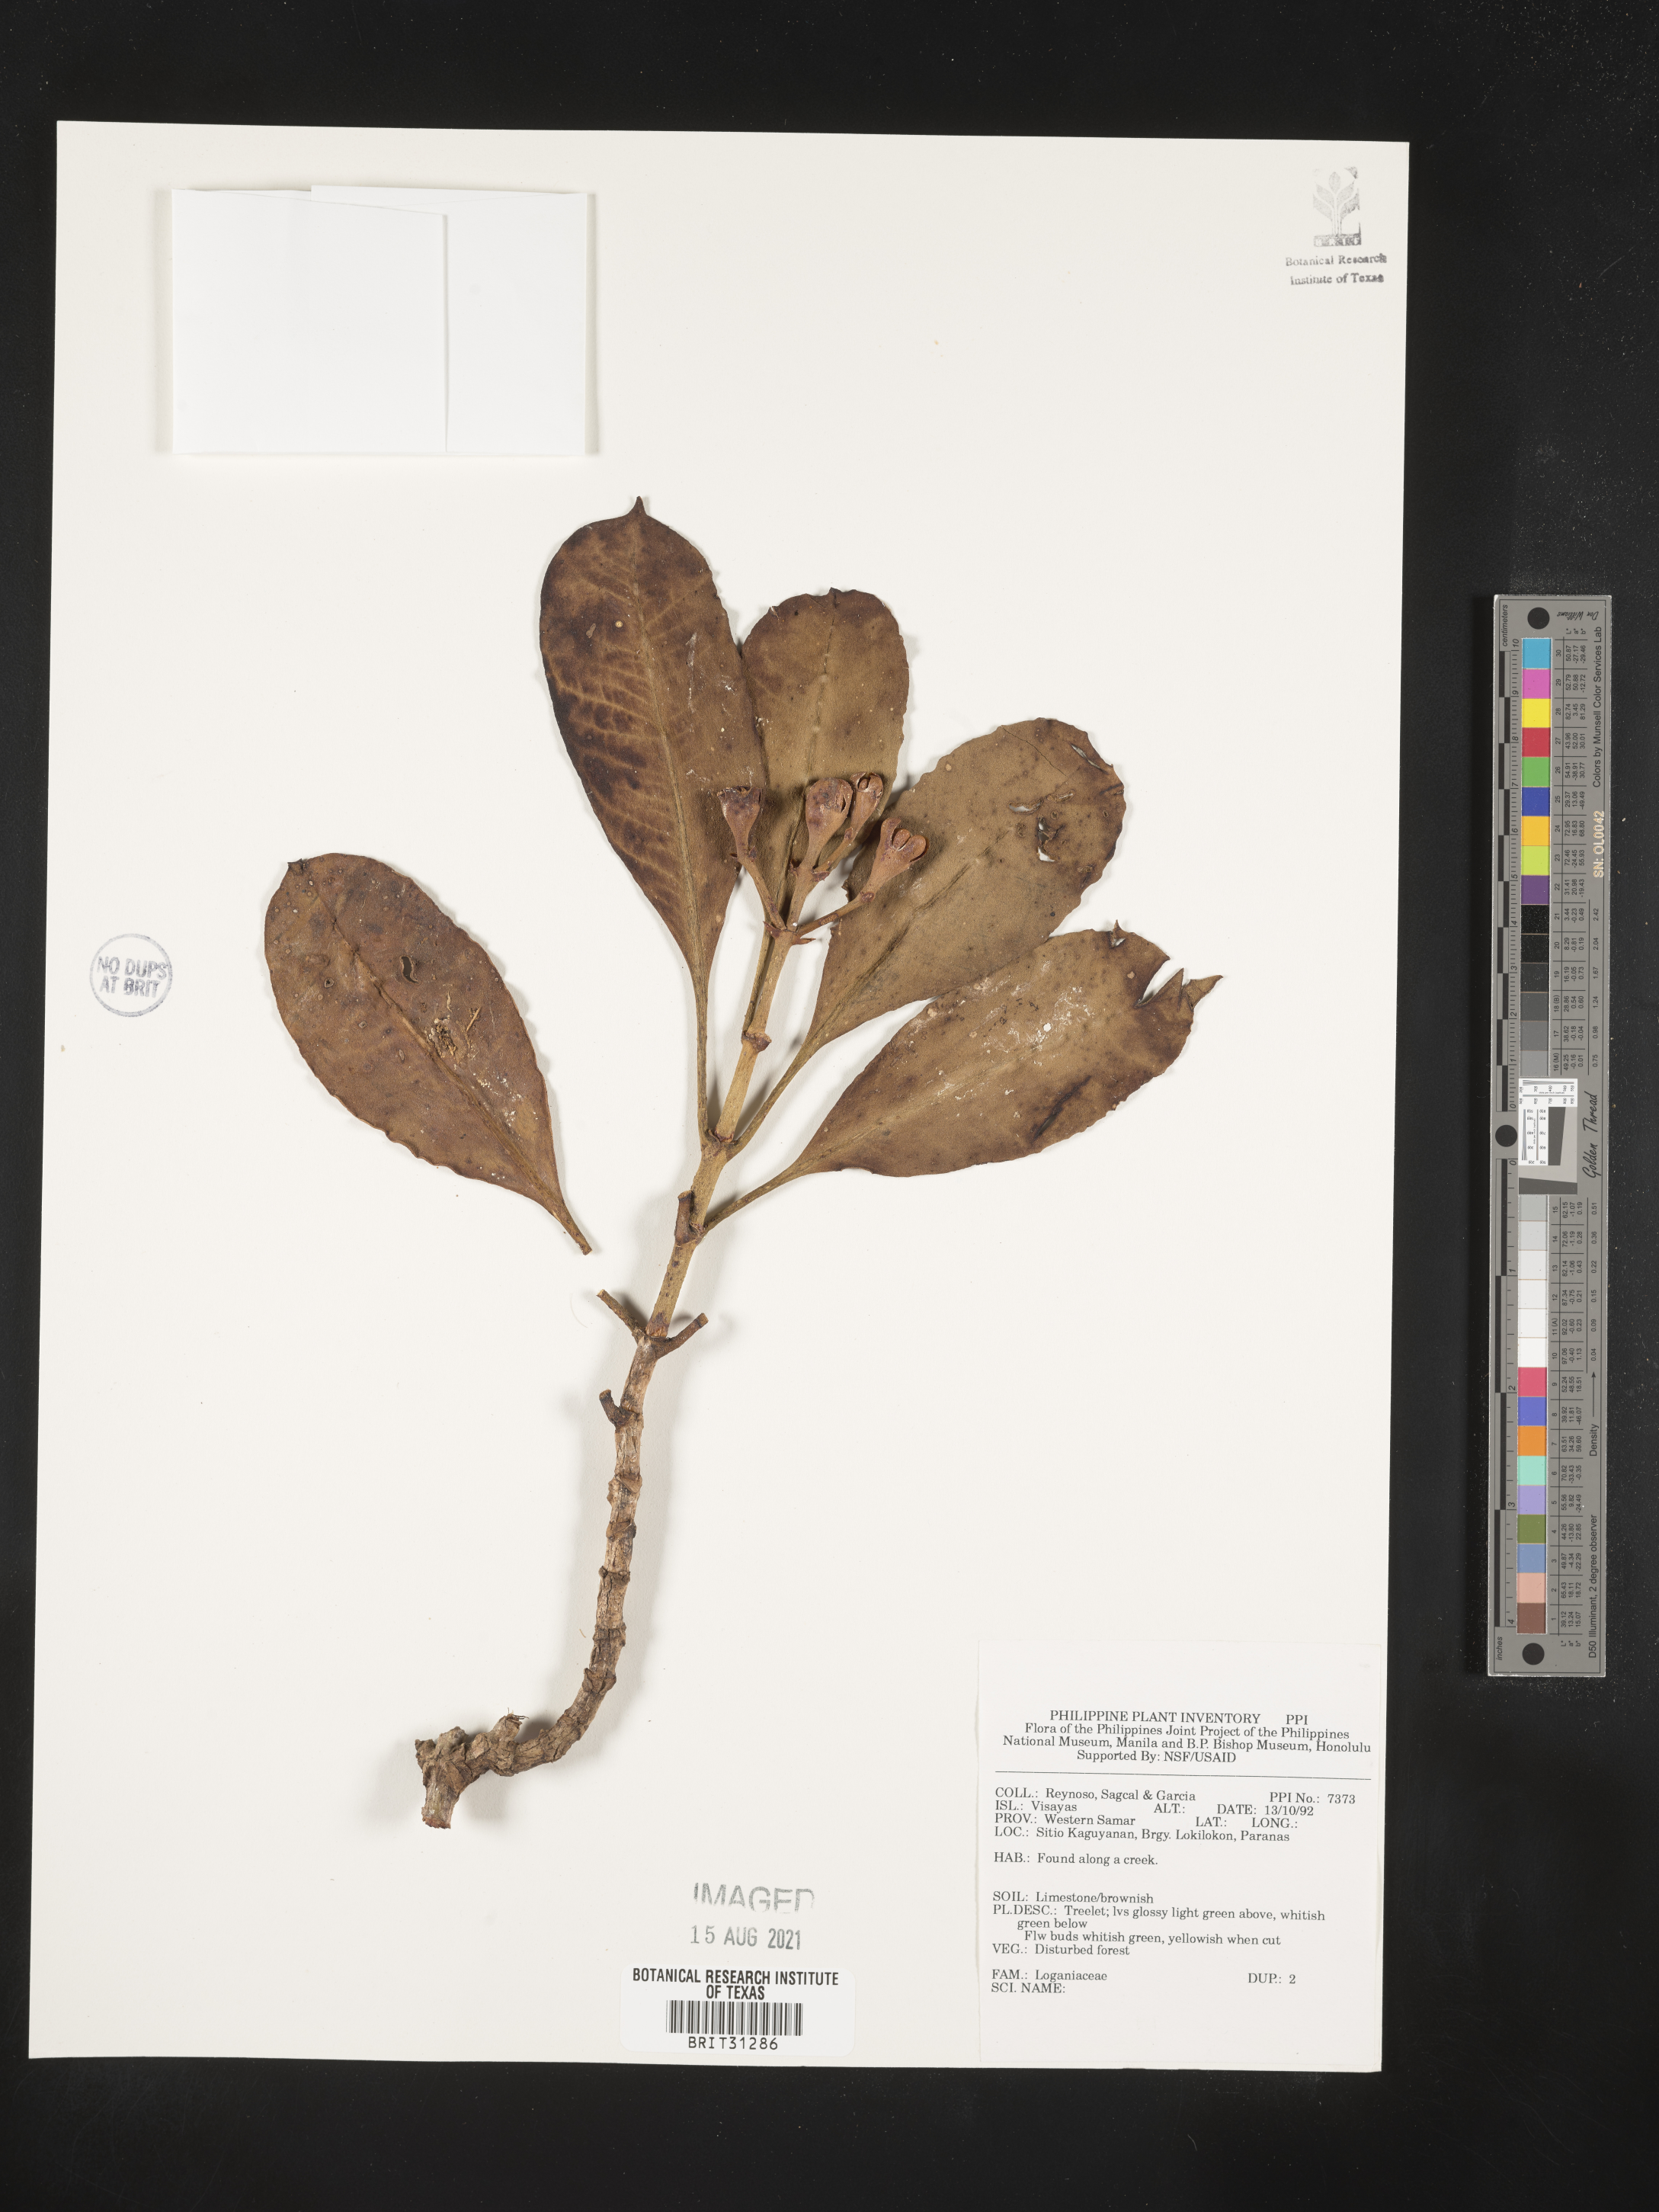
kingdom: Plantae
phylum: Tracheophyta
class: Magnoliopsida
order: Gentianales
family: Loganiaceae
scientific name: Loganiaceae
